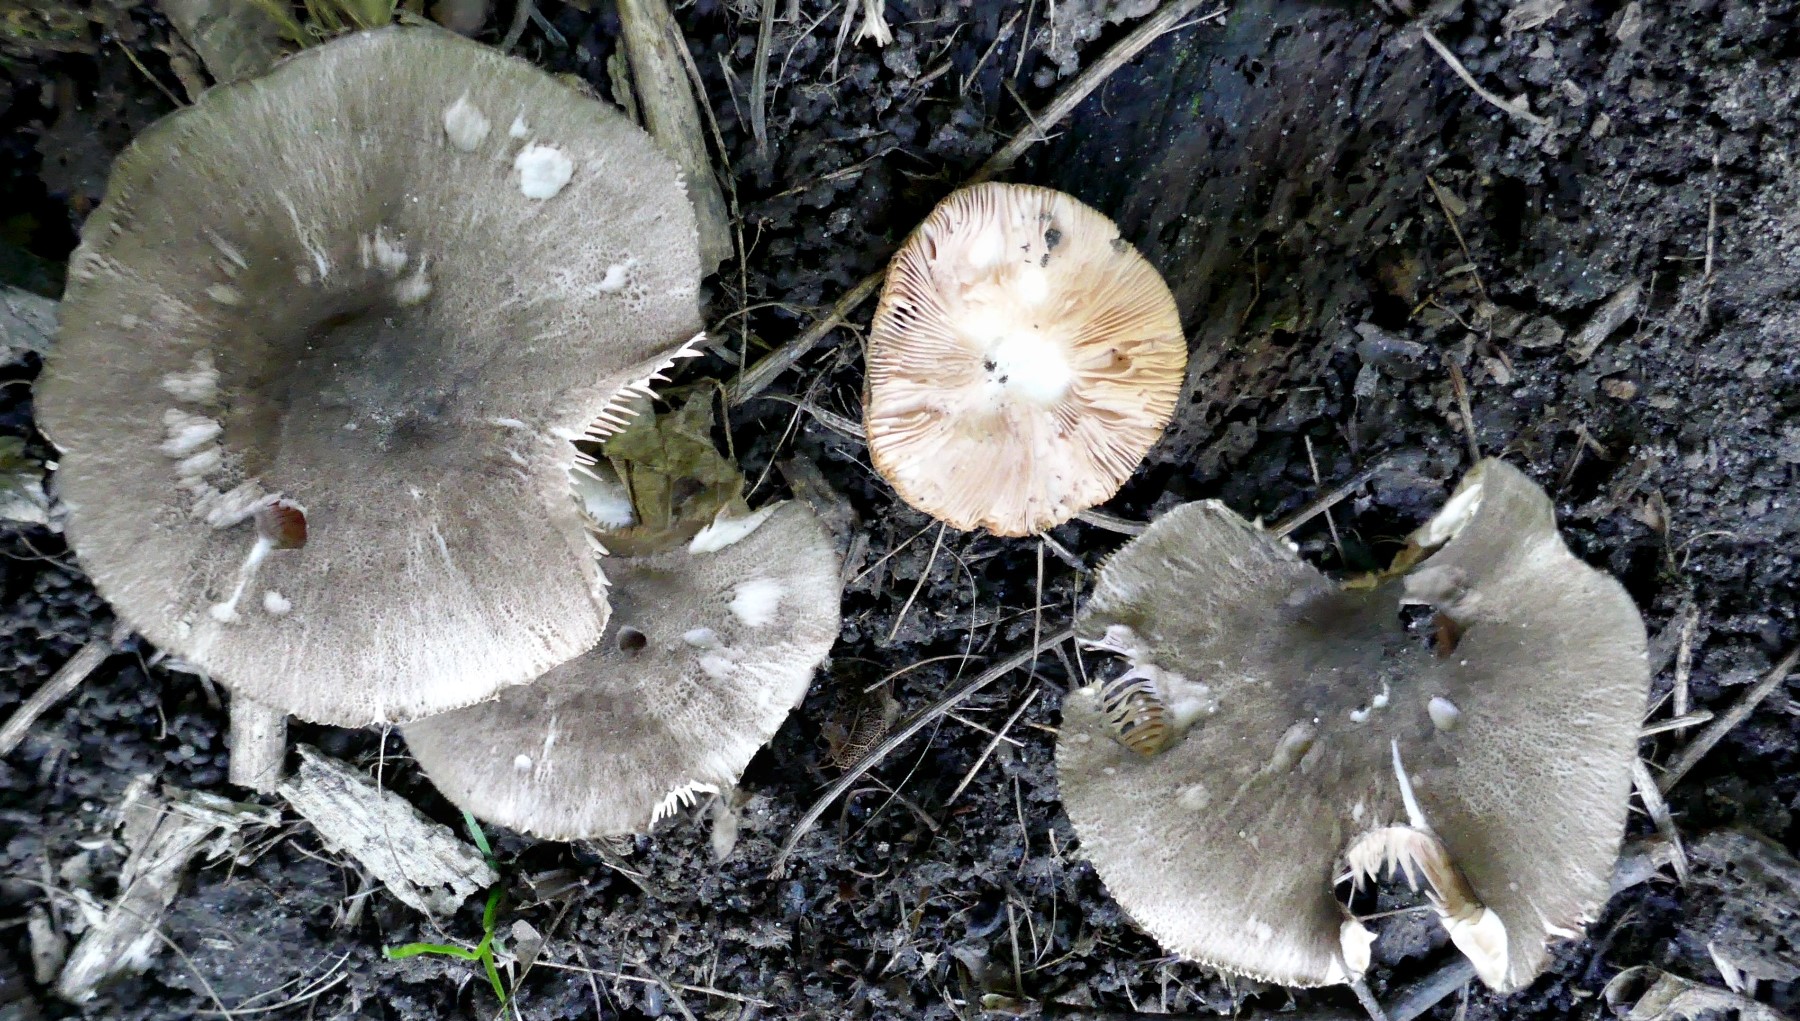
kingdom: Fungi
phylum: Basidiomycota
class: Agaricomycetes
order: Agaricales
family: Pluteaceae
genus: Pluteus
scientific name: Pluteus
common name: gråfibret skærmhat
